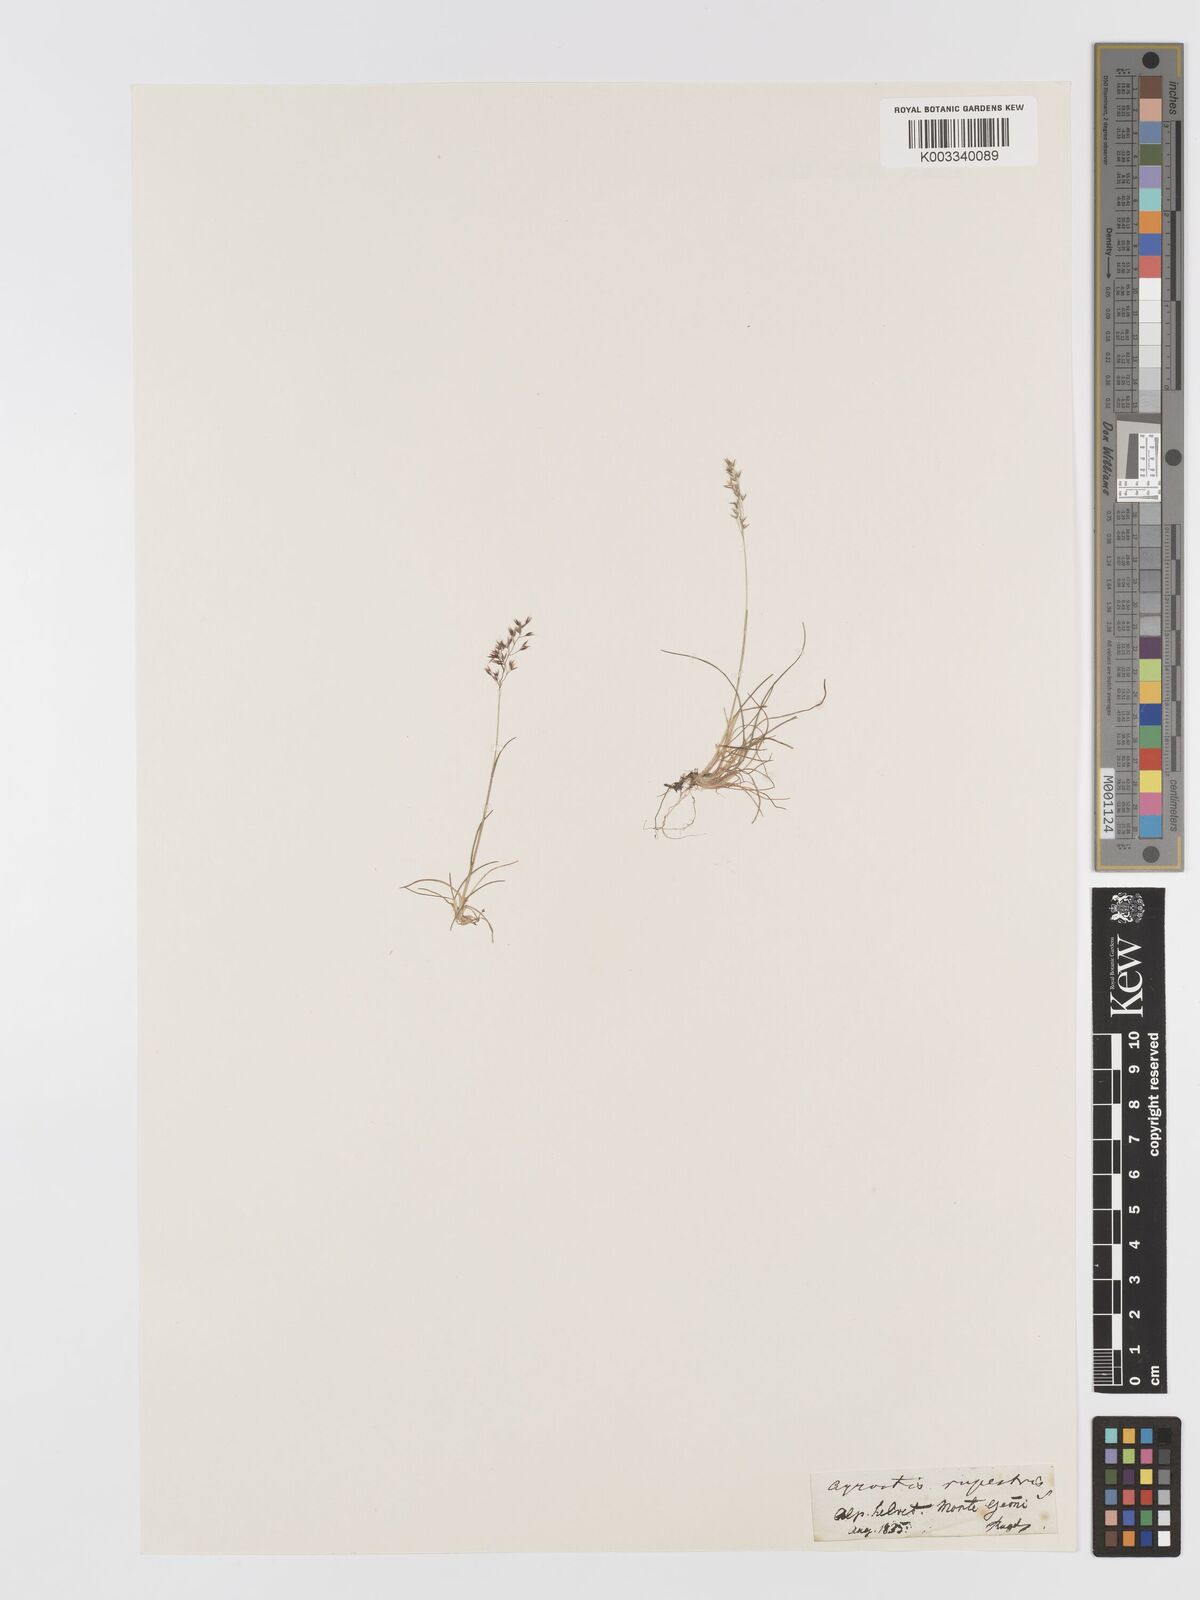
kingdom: Plantae
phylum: Tracheophyta
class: Liliopsida
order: Poales
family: Poaceae
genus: Agrostis
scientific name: Agrostis rupestris
